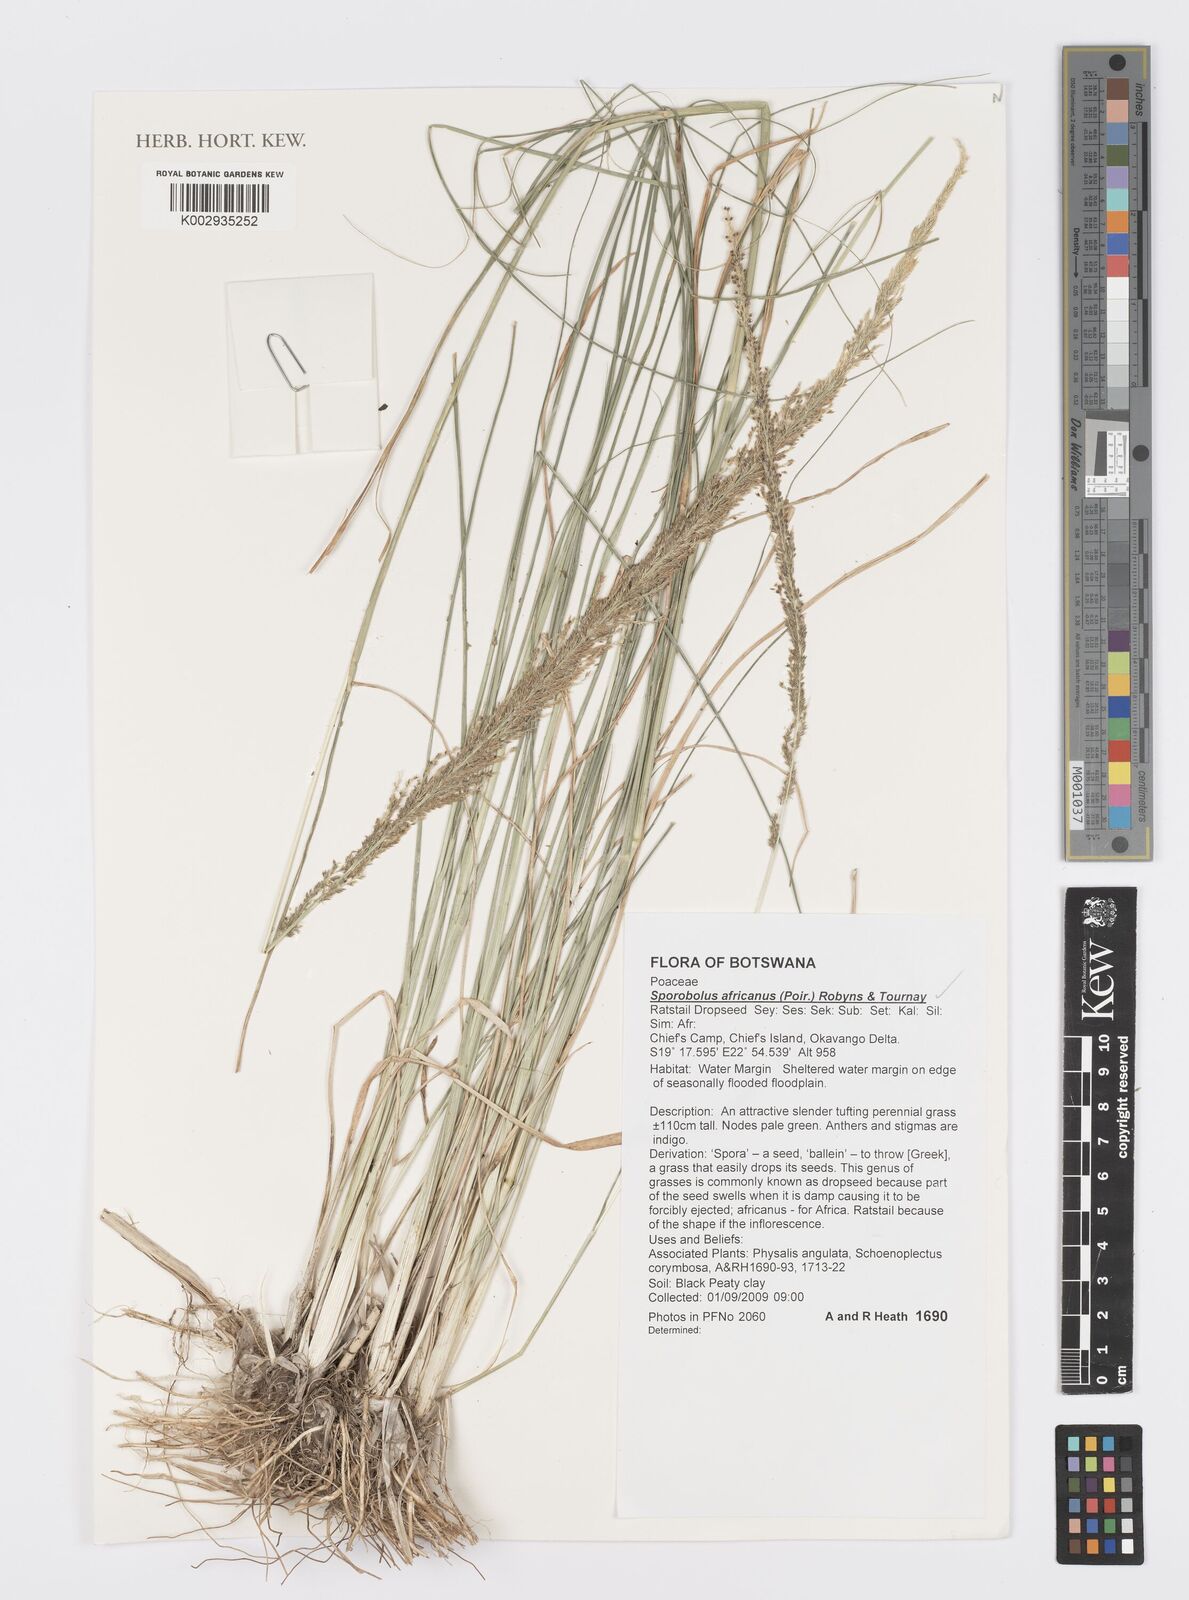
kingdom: Plantae
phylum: Tracheophyta
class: Liliopsida
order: Poales
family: Poaceae
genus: Sporobolus
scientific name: Sporobolus africanus
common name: African dropseed
